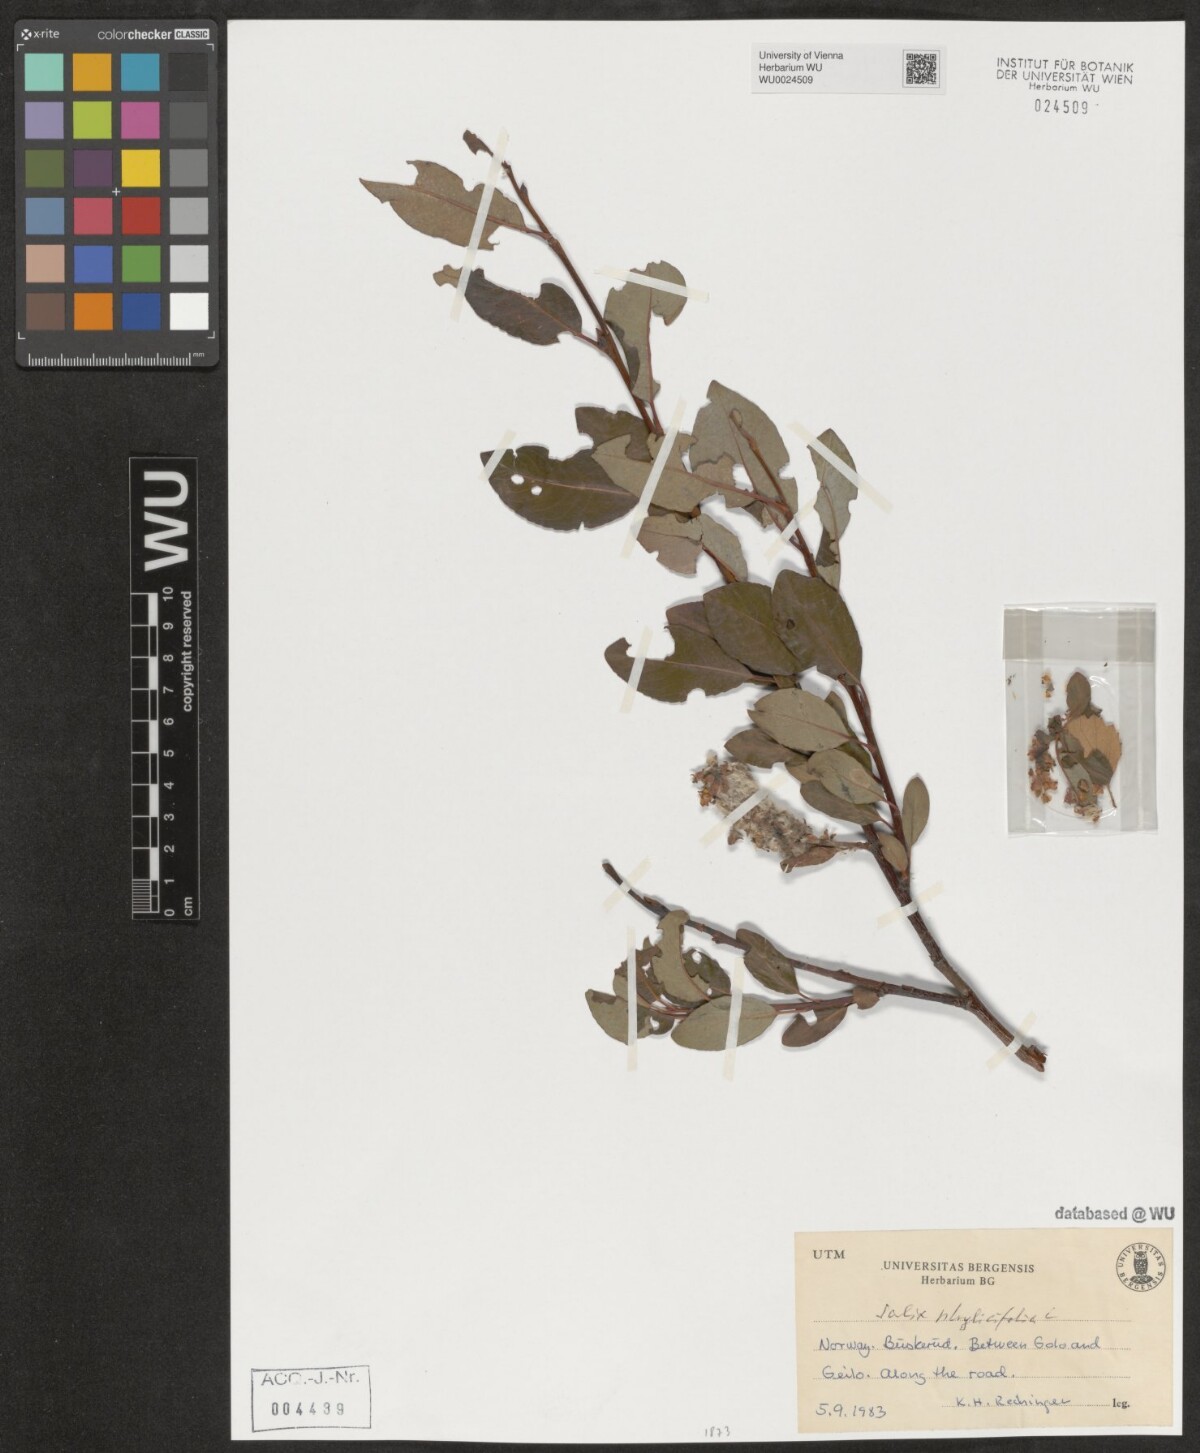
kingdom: Plantae
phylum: Tracheophyta
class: Magnoliopsida
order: Malpighiales
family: Salicaceae
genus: Salix
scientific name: Salix phylicifolia
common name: Tea-leaved willow
